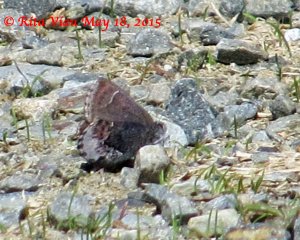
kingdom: Animalia
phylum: Arthropoda
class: Insecta
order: Lepidoptera
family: Lycaenidae
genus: Callophrys
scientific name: Callophrys polios
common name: Hoary Elfin
